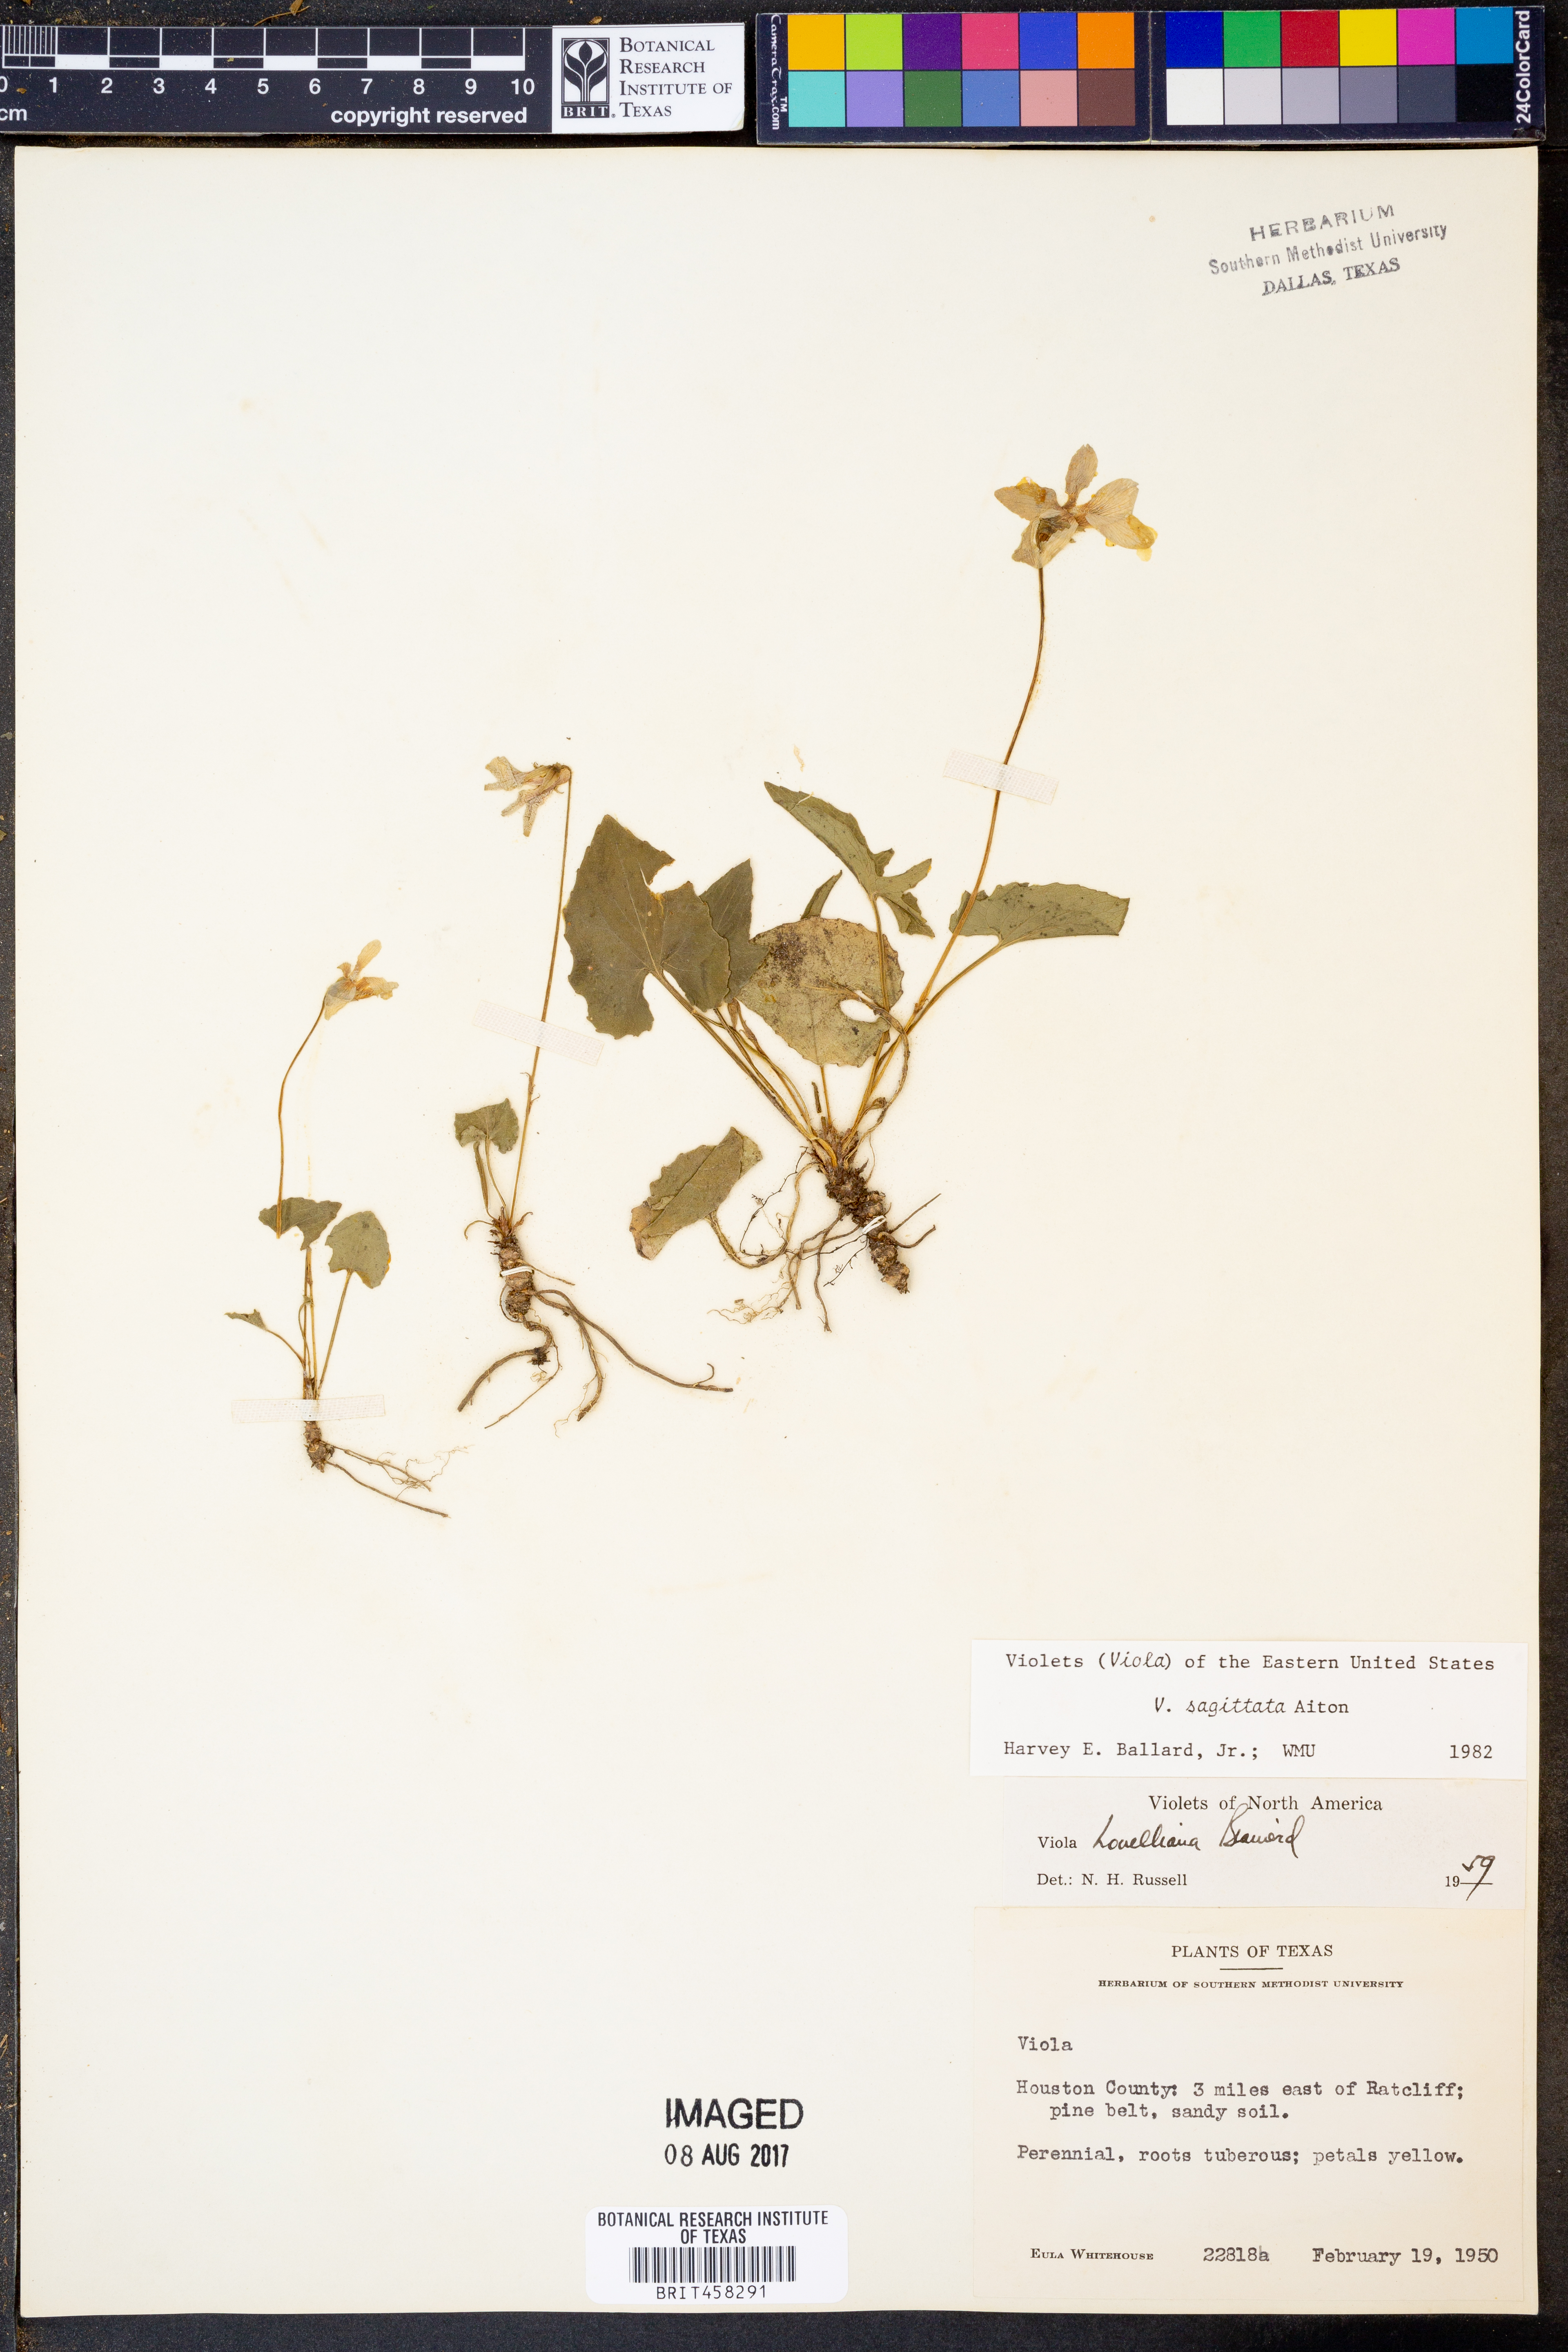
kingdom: Plantae
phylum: Tracheophyta
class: Magnoliopsida
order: Malpighiales
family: Violaceae
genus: Viola
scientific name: Viola sagittata
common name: Arrowhead violet
